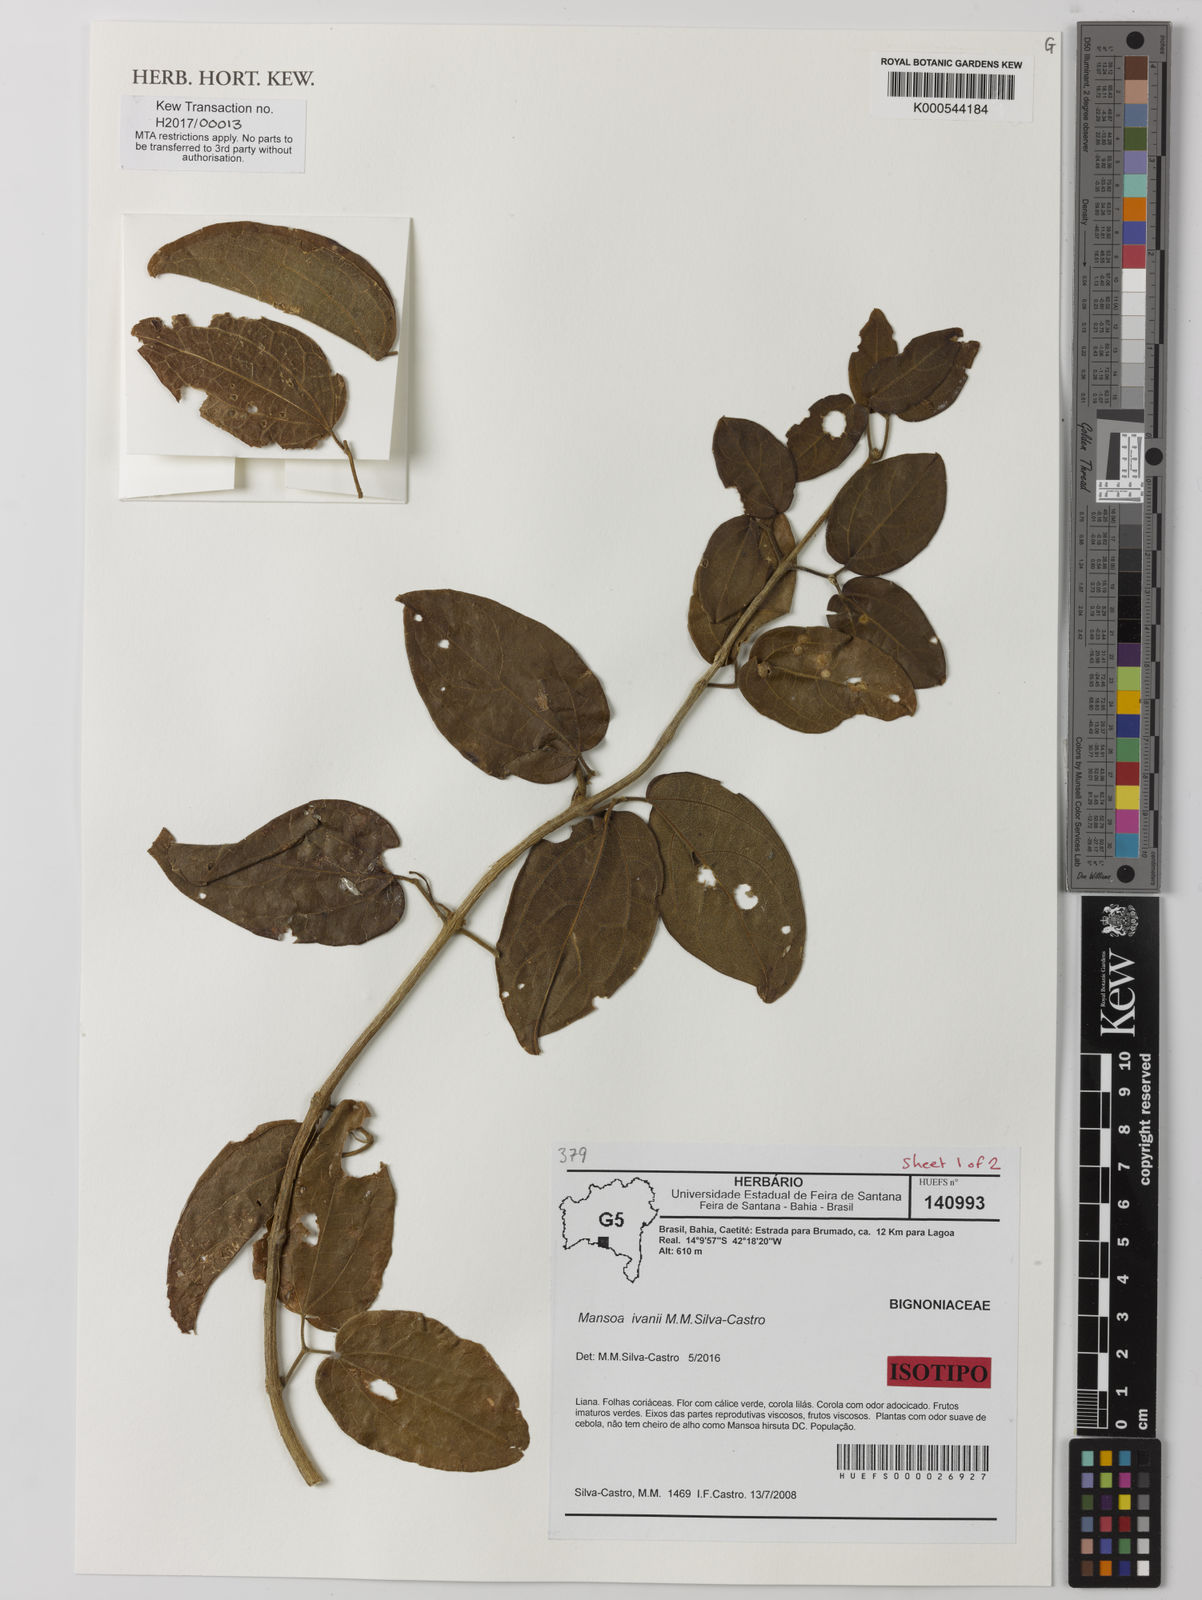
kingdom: Plantae
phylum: Tracheophyta
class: Magnoliopsida
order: Lamiales
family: Bignoniaceae
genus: Mansoa
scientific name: Mansoa ivanii
